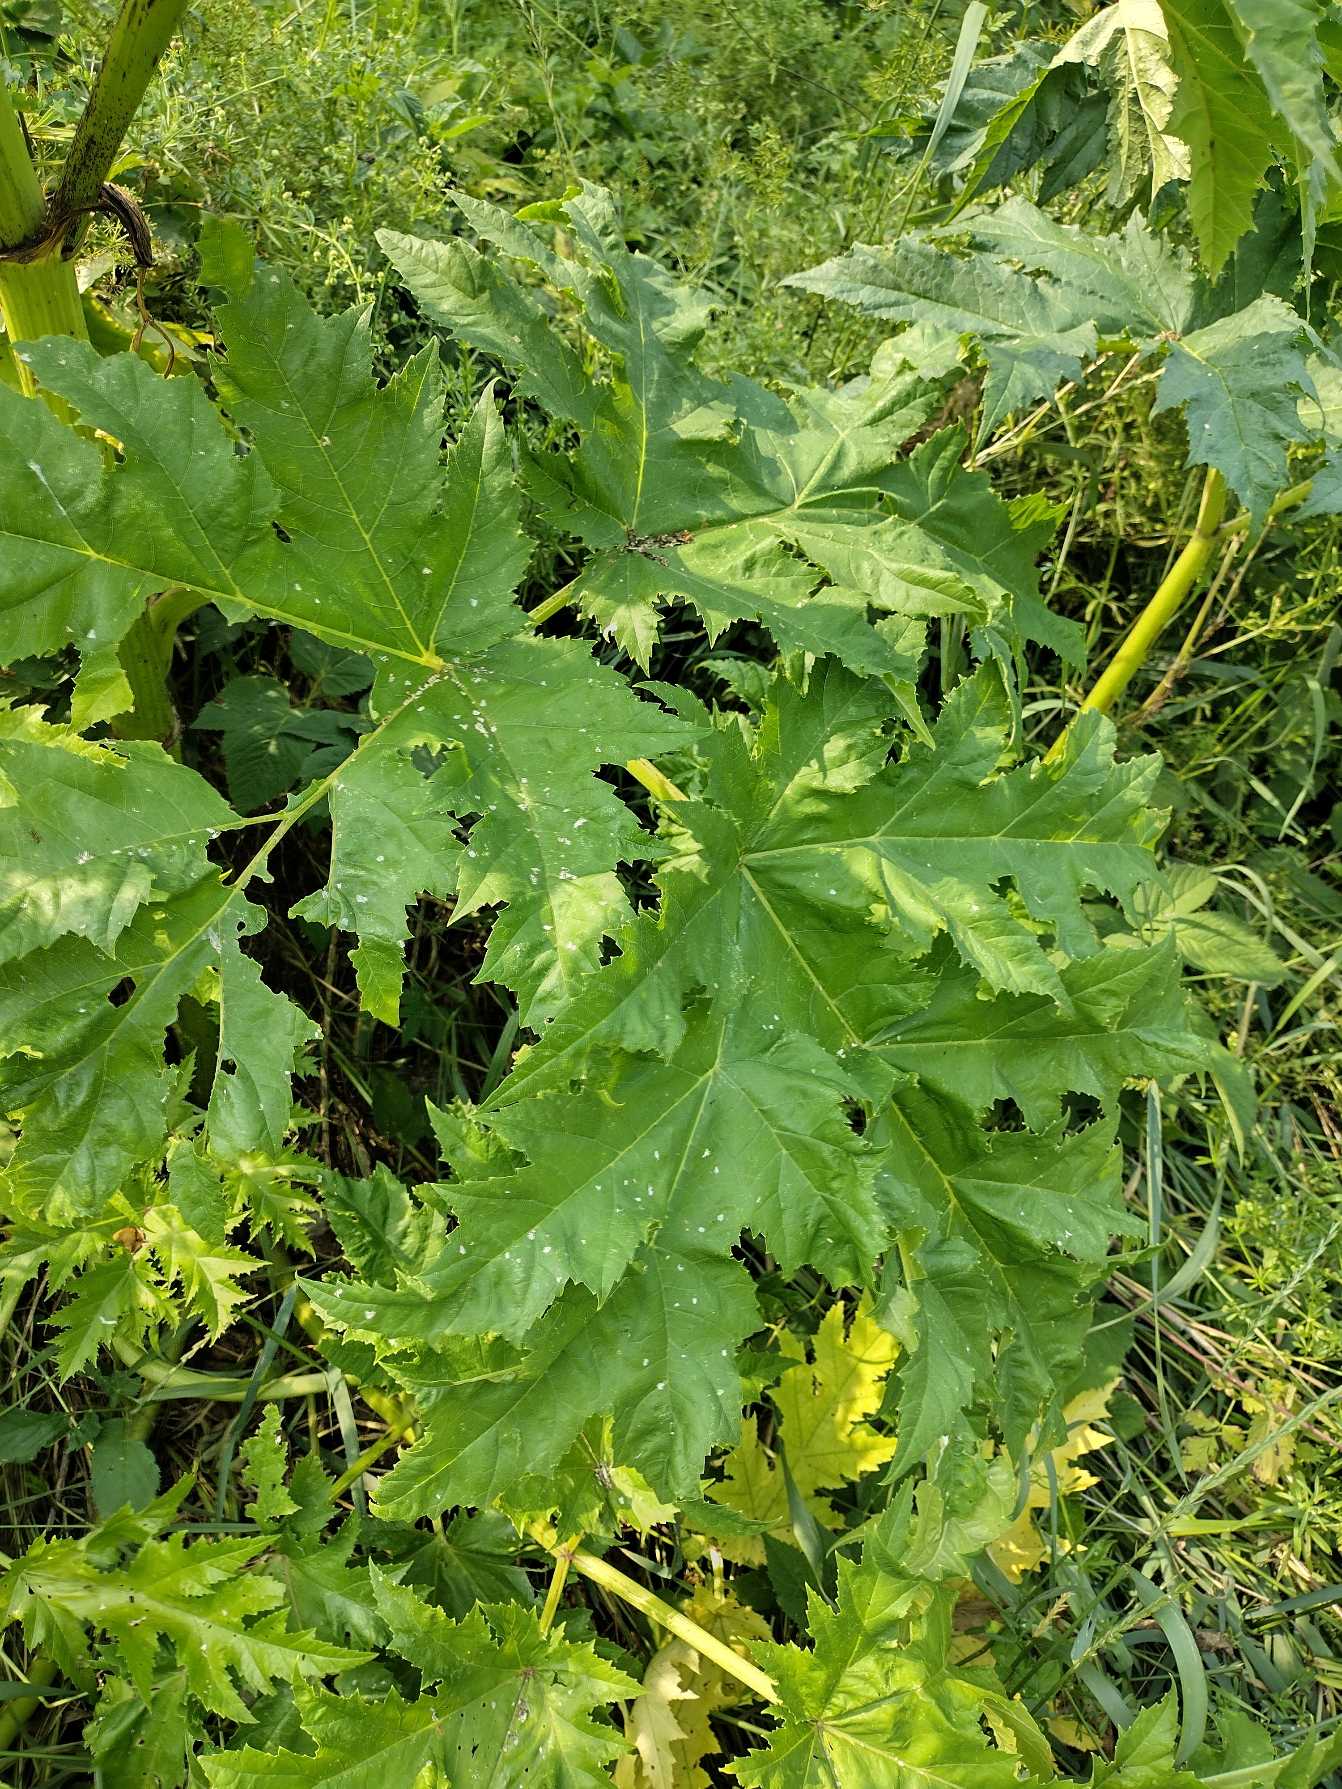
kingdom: Plantae
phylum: Tracheophyta
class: Magnoliopsida
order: Apiales
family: Apiaceae
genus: Heracleum
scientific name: Heracleum mantegazzianum
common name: Kæmpe-bjørneklo
